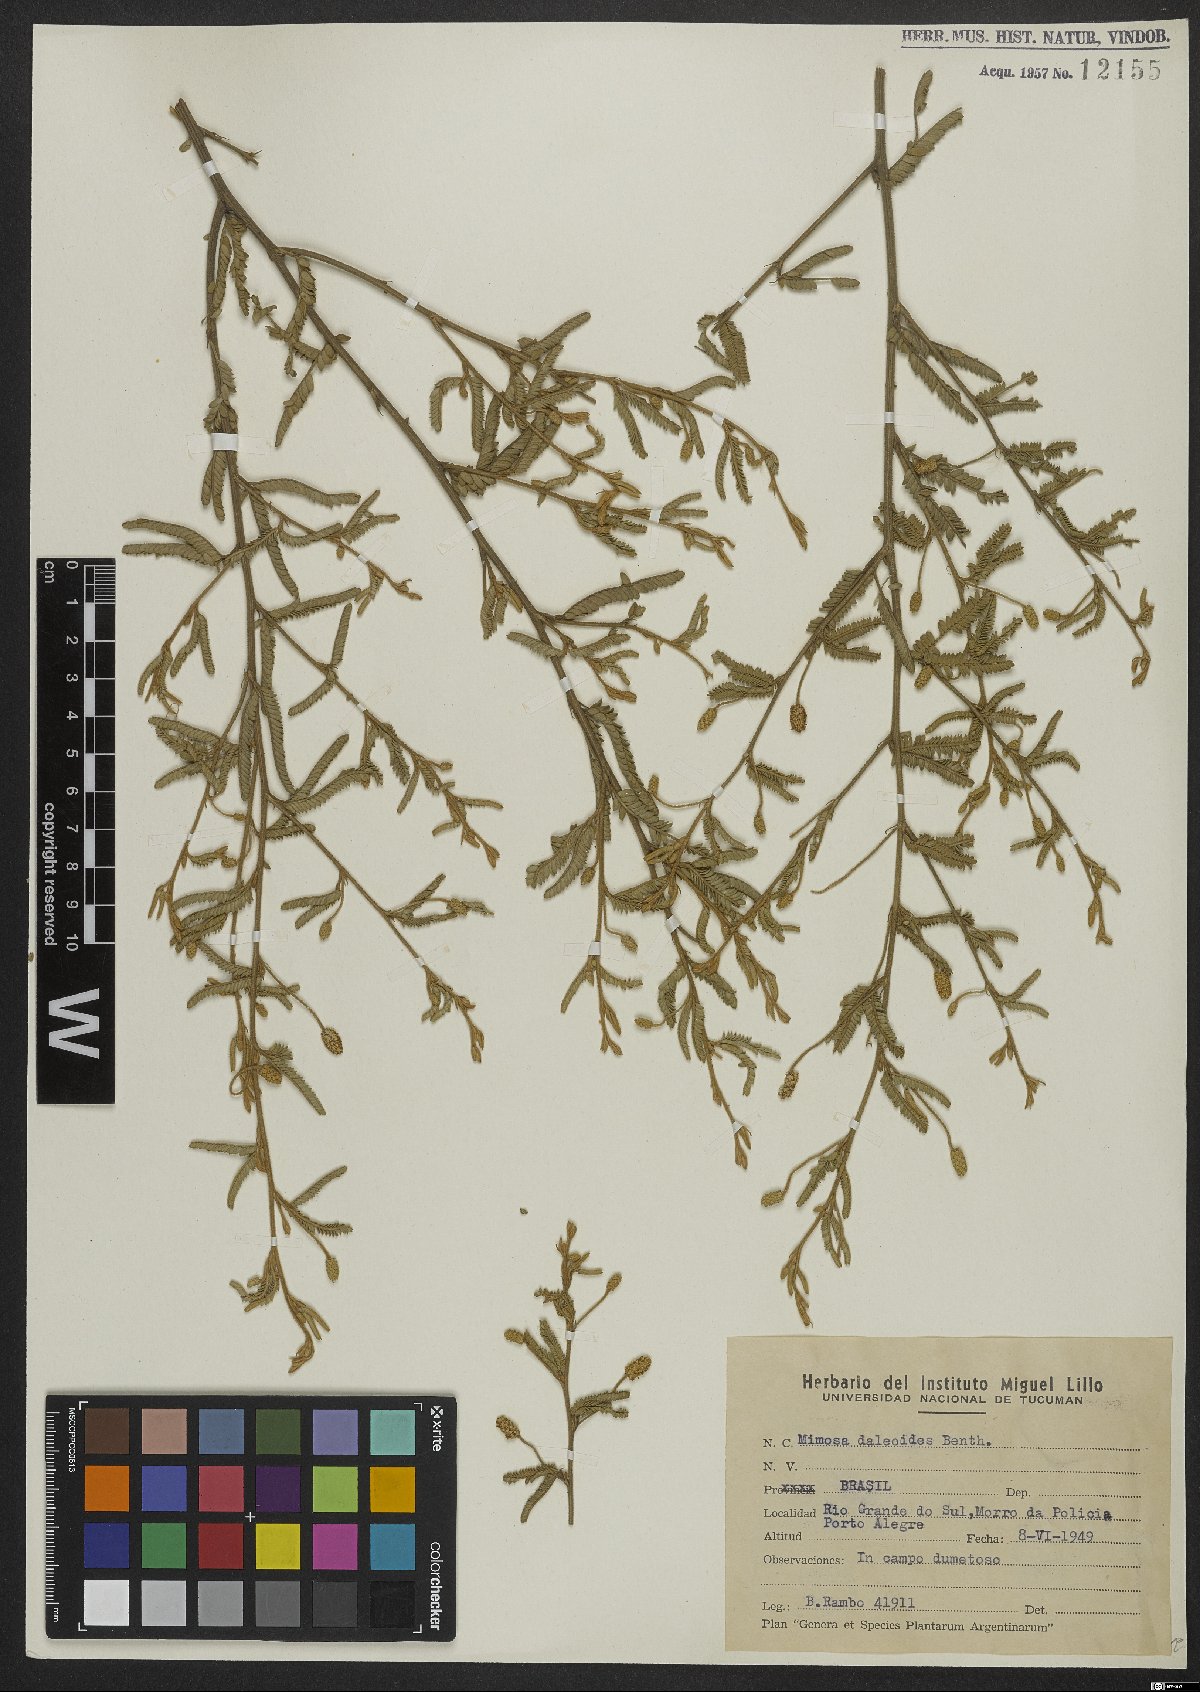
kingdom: Plantae
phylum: Tracheophyta
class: Magnoliopsida
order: Fabales
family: Fabaceae
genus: Mimosa
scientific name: Mimosa daleoides
